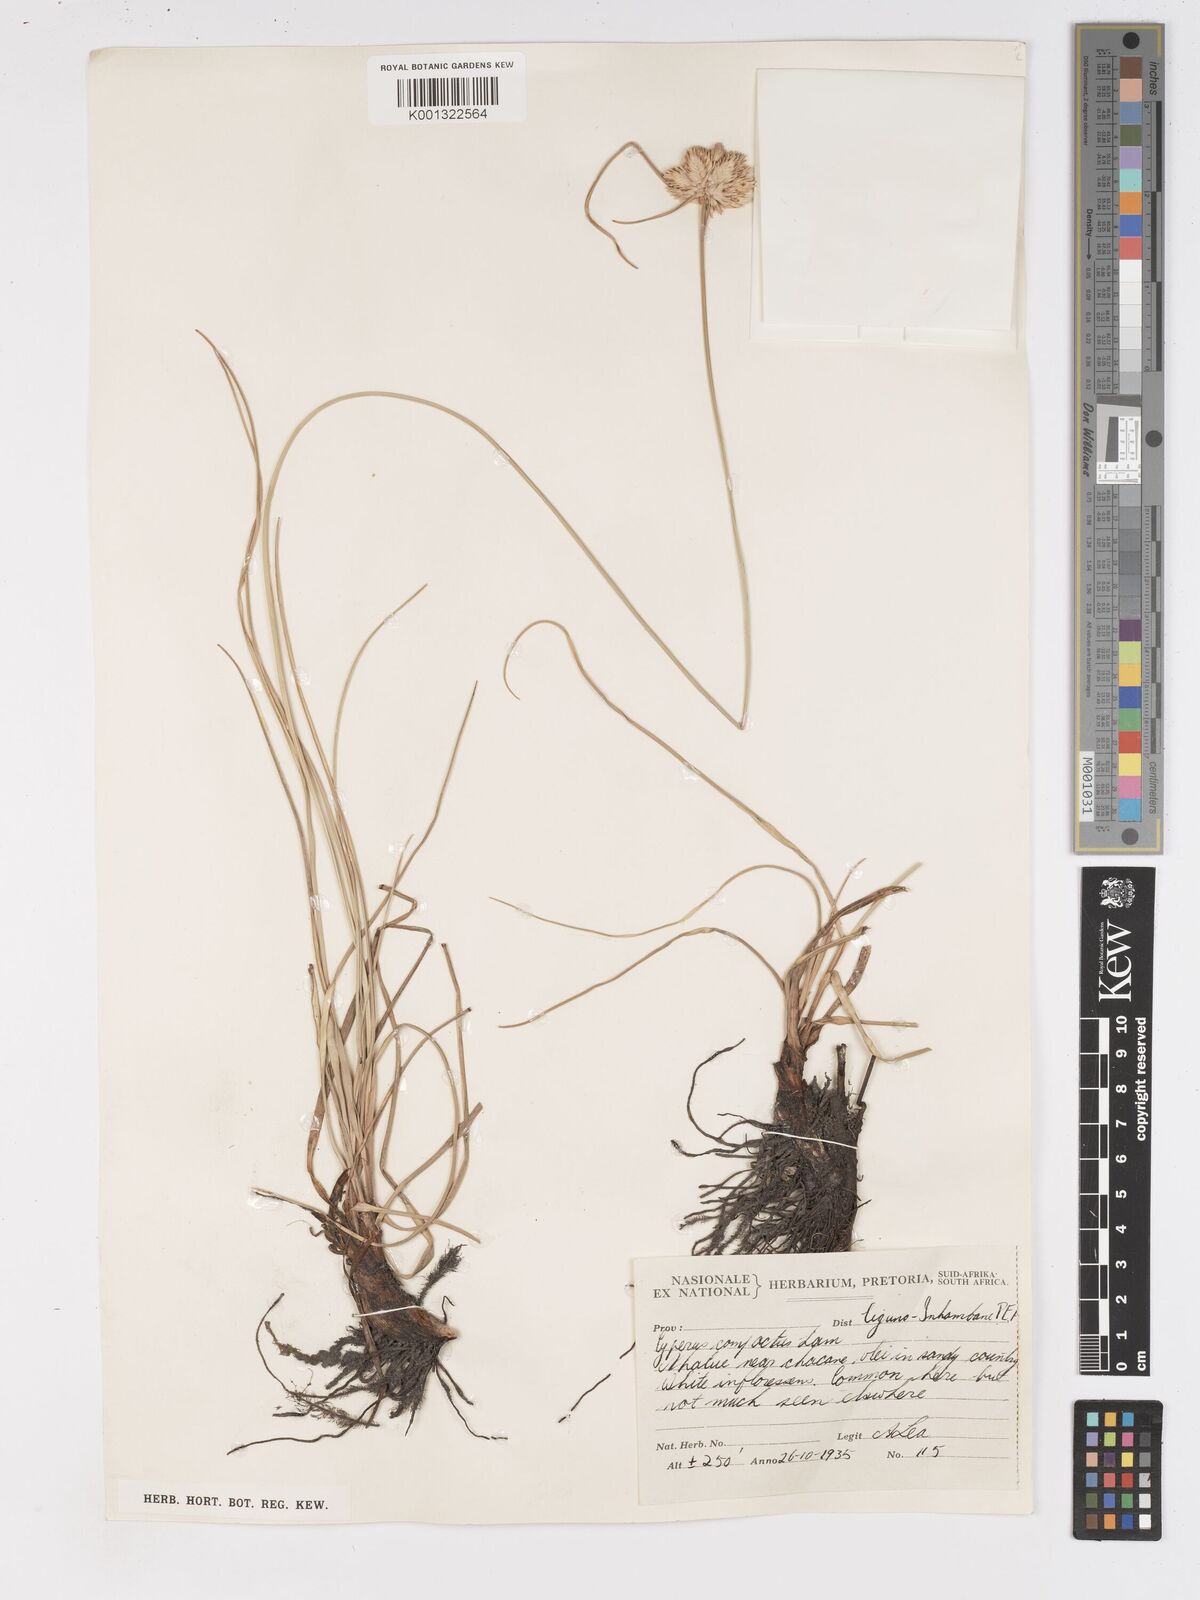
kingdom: Plantae
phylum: Tracheophyta
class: Liliopsida
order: Poales
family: Cyperaceae
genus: Cyperus
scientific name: Cyperus niveus
